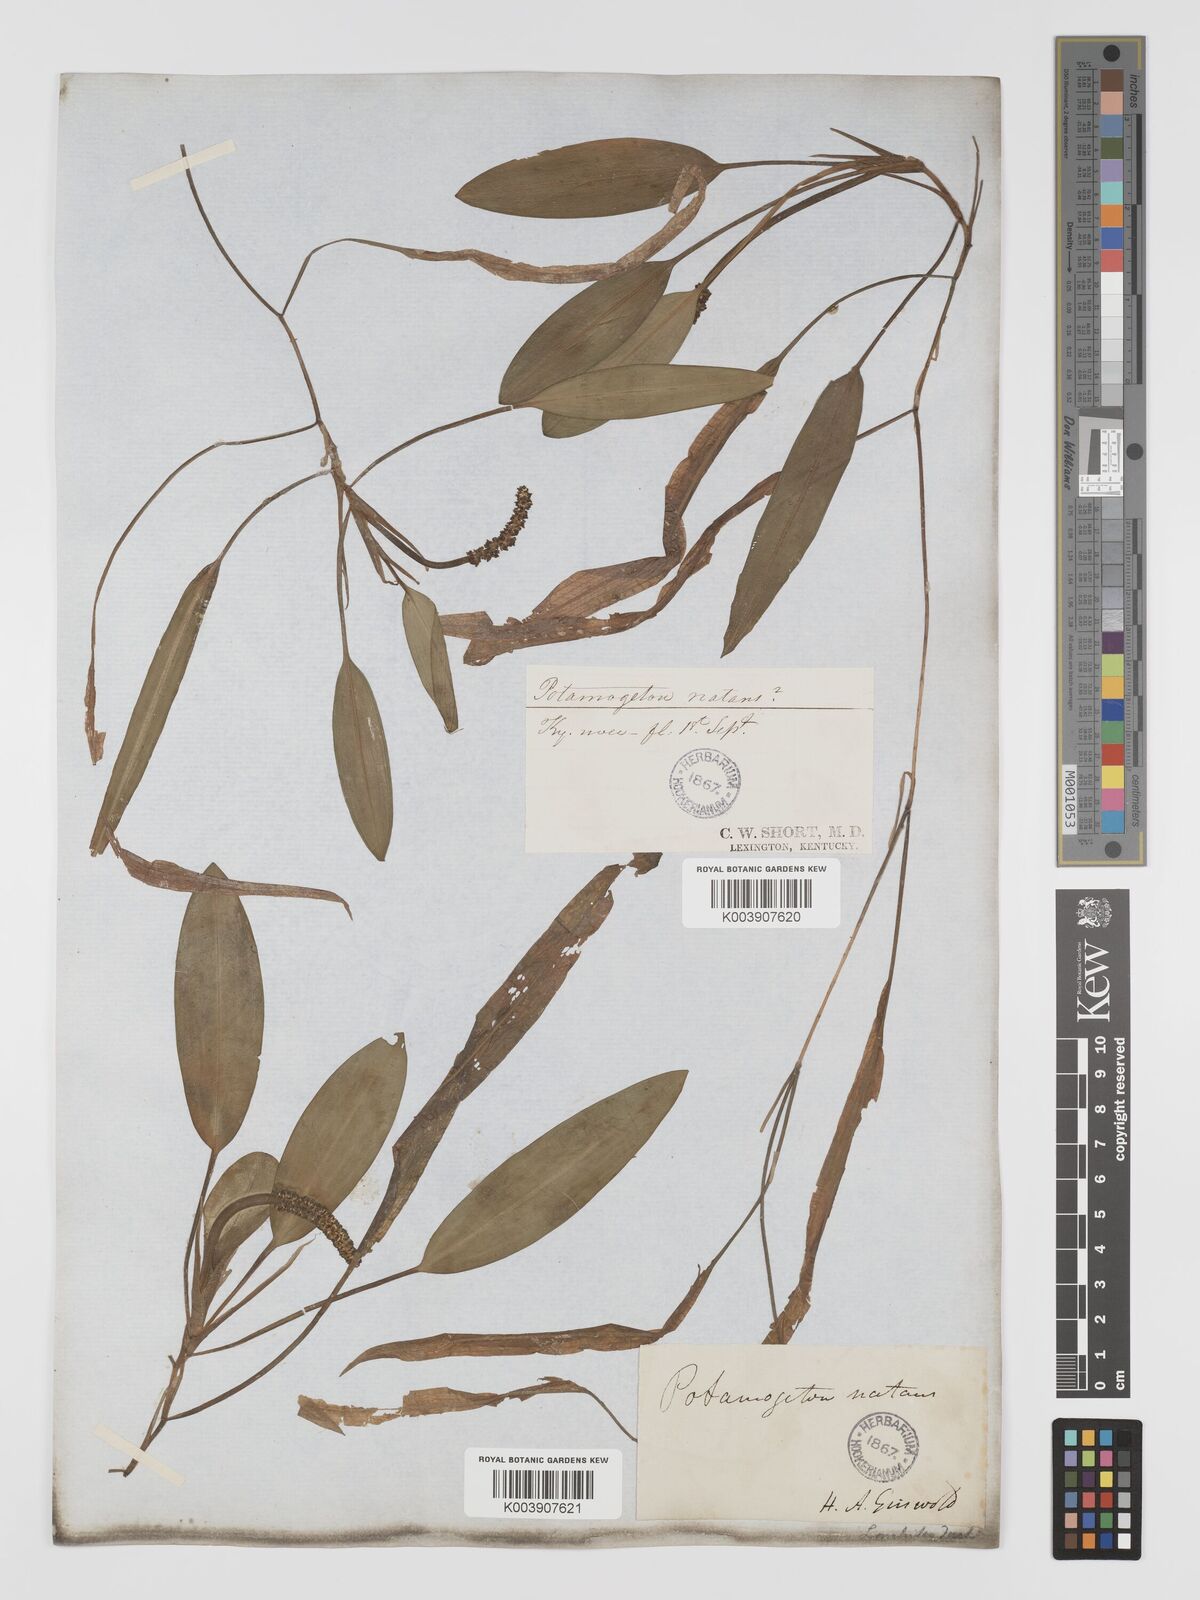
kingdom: Plantae
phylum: Tracheophyta
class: Liliopsida
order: Alismatales
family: Potamogetonaceae
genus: Potamogeton
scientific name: Potamogeton nodosus
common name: Loddon pondweed
